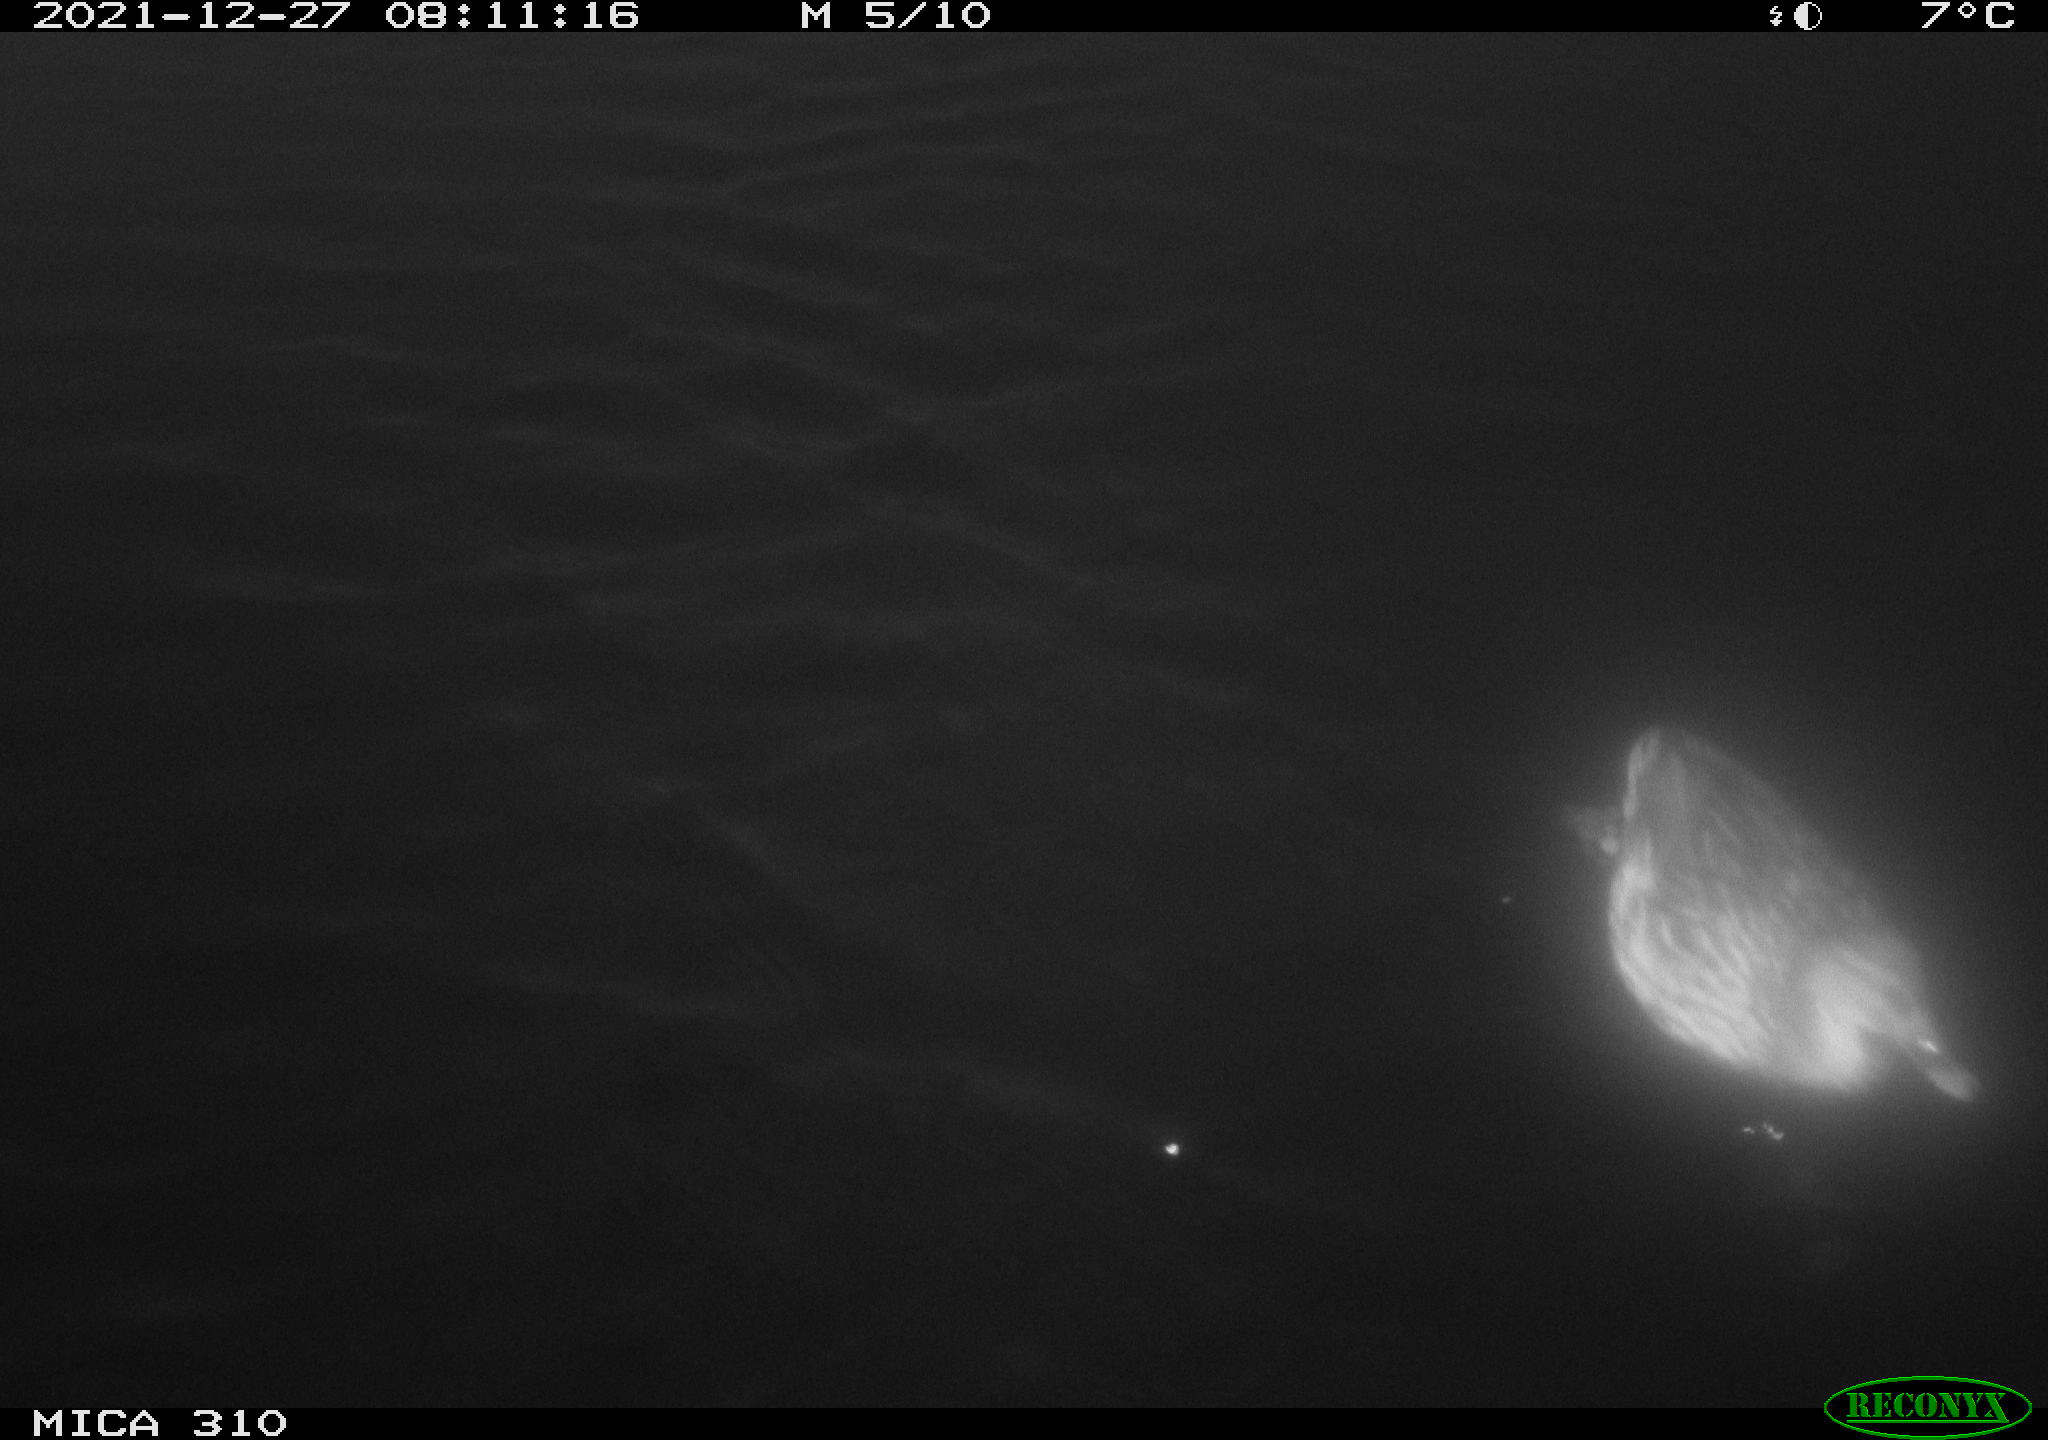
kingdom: Animalia
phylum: Chordata
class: Aves
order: Anseriformes
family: Anatidae
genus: Anas
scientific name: Anas platyrhynchos
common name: Mallard
